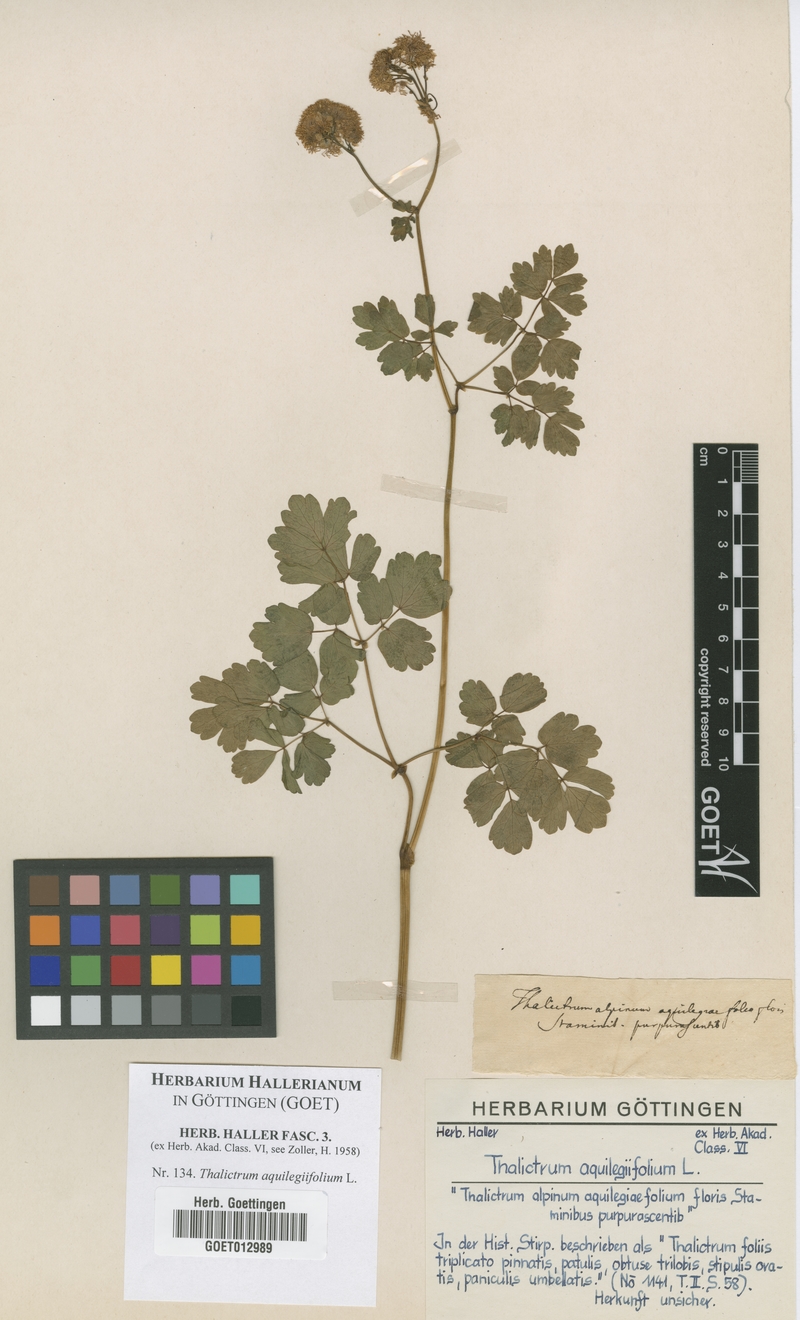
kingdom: Plantae
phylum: Tracheophyta
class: Magnoliopsida
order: Ranunculales
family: Ranunculaceae
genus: Thalictrum
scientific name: Thalictrum aquilegiifolium
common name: French meadow-rue
